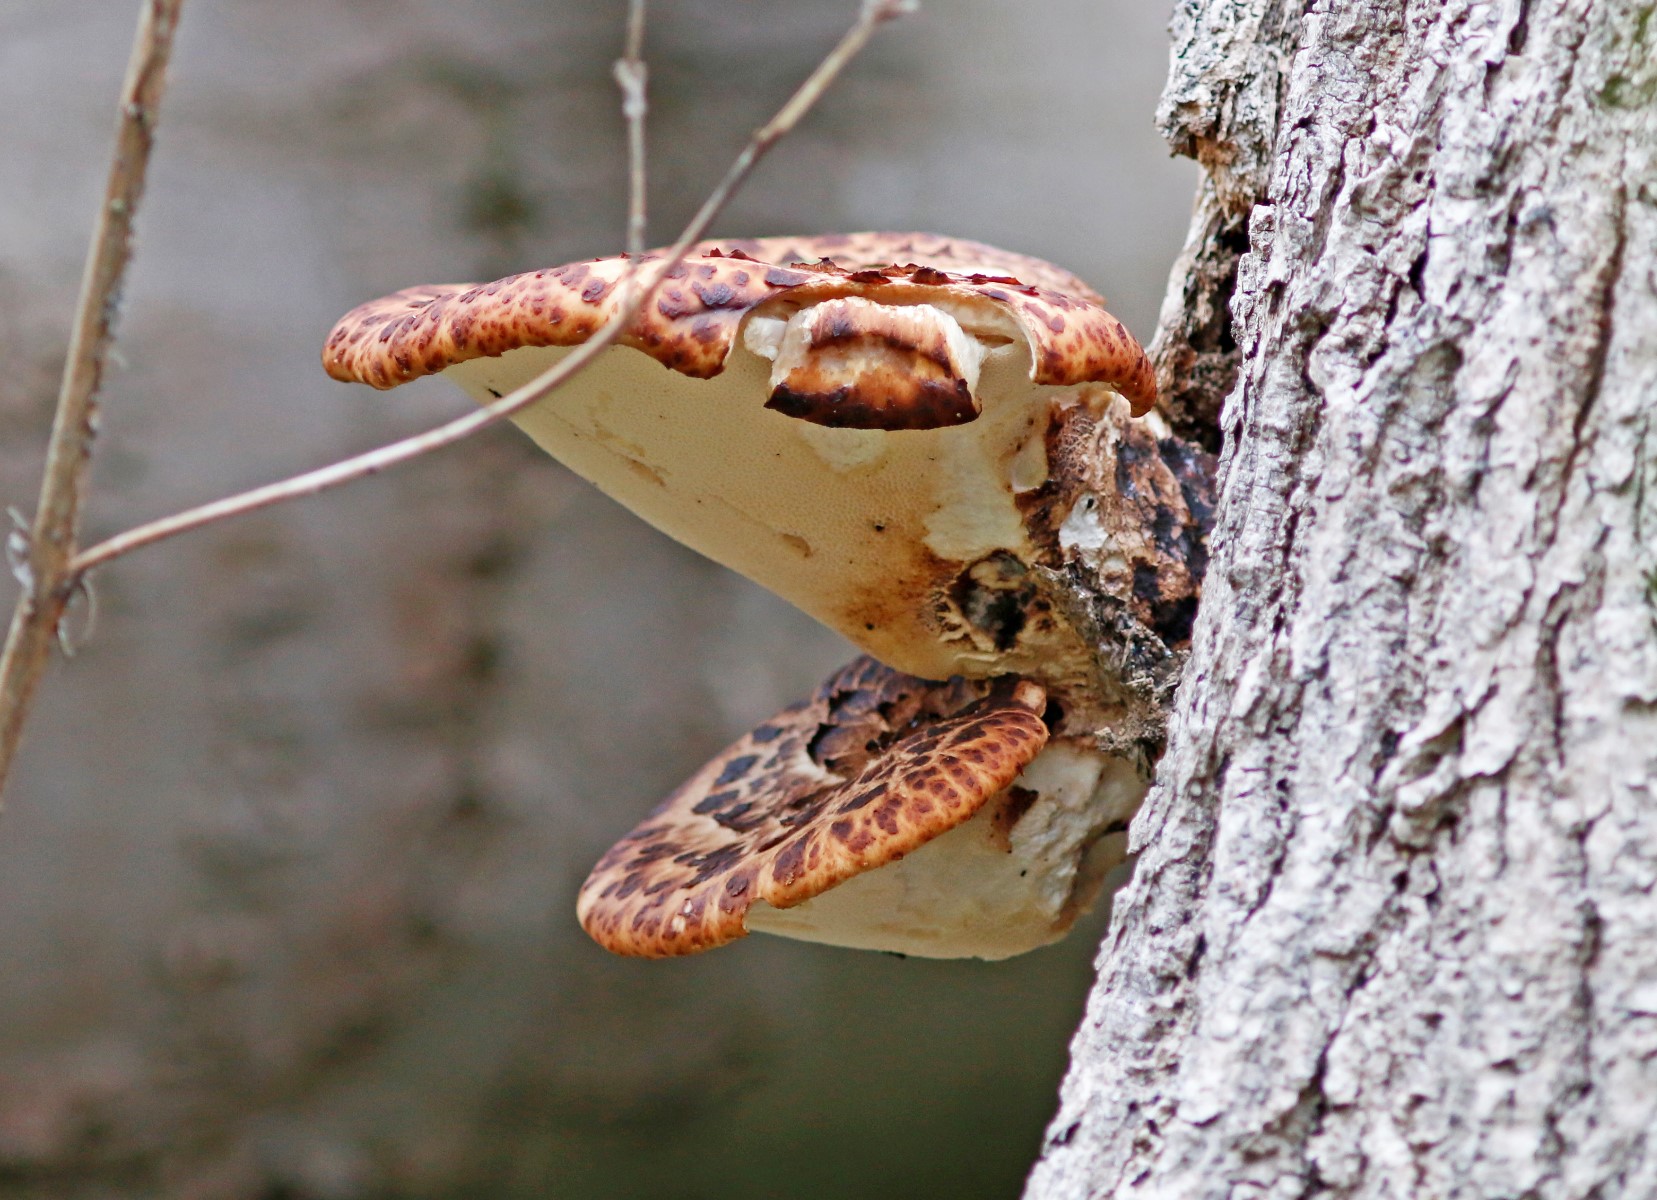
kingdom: Fungi
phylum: Basidiomycota
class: Agaricomycetes
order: Polyporales
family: Polyporaceae
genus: Cerioporus
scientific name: Cerioporus squamosus
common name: skællet stilkporesvamp
